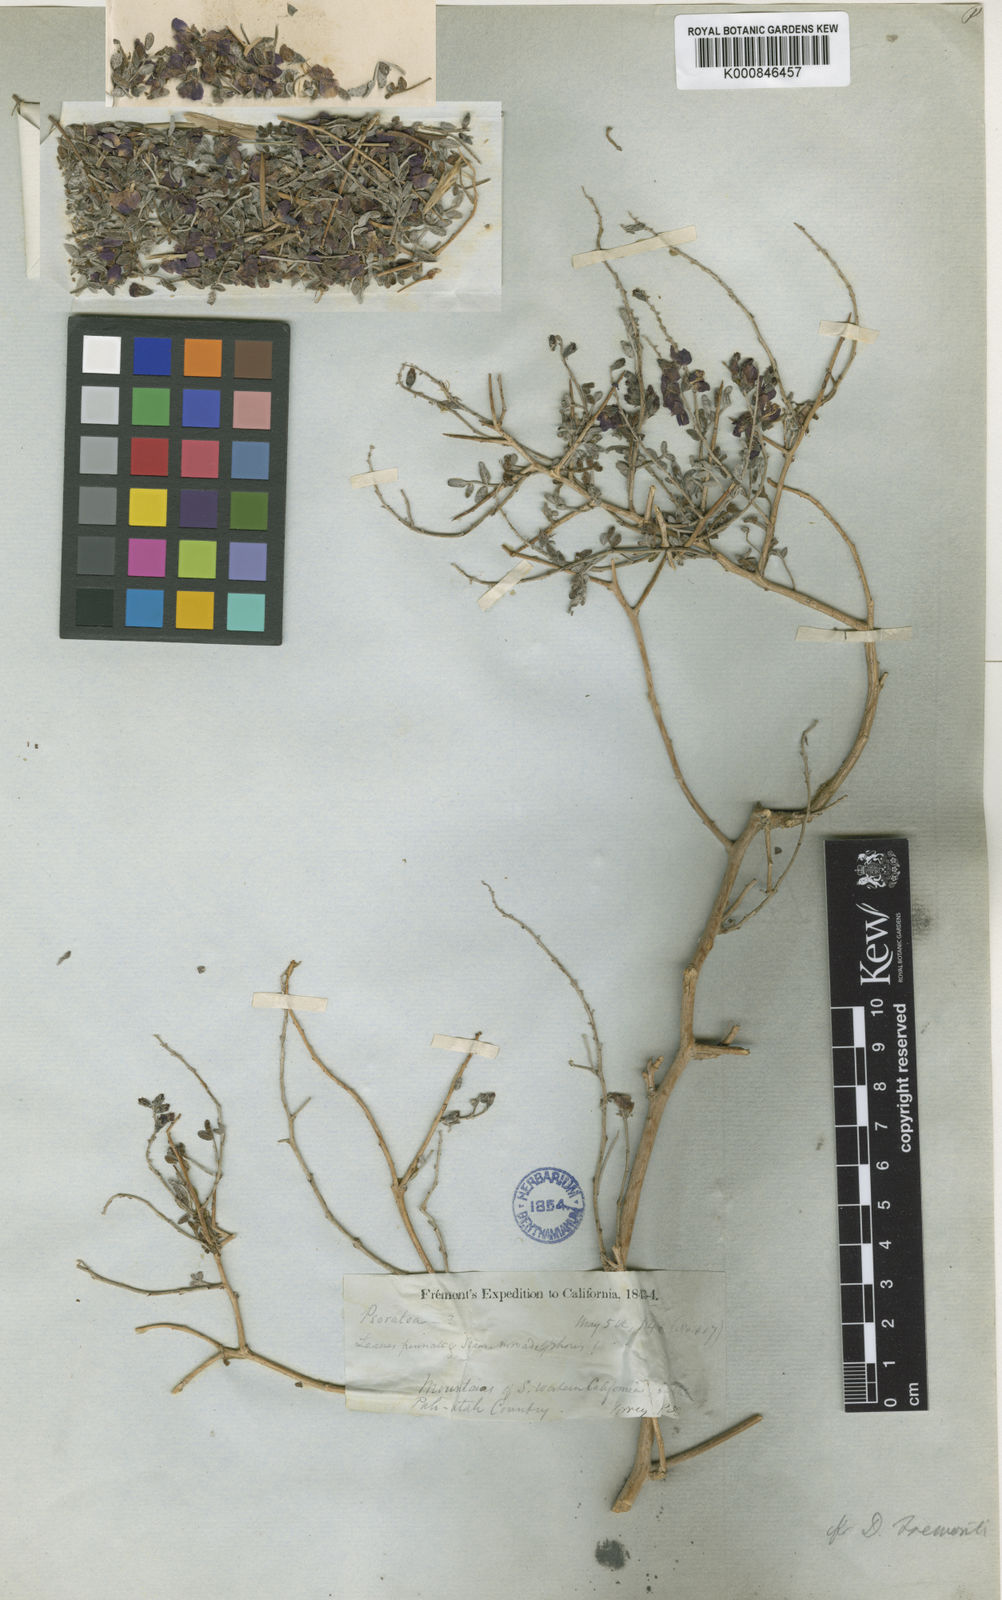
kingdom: Plantae
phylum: Tracheophyta
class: Magnoliopsida
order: Fabales
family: Fabaceae
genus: Psorothamnus
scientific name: Psorothamnus fremontii
